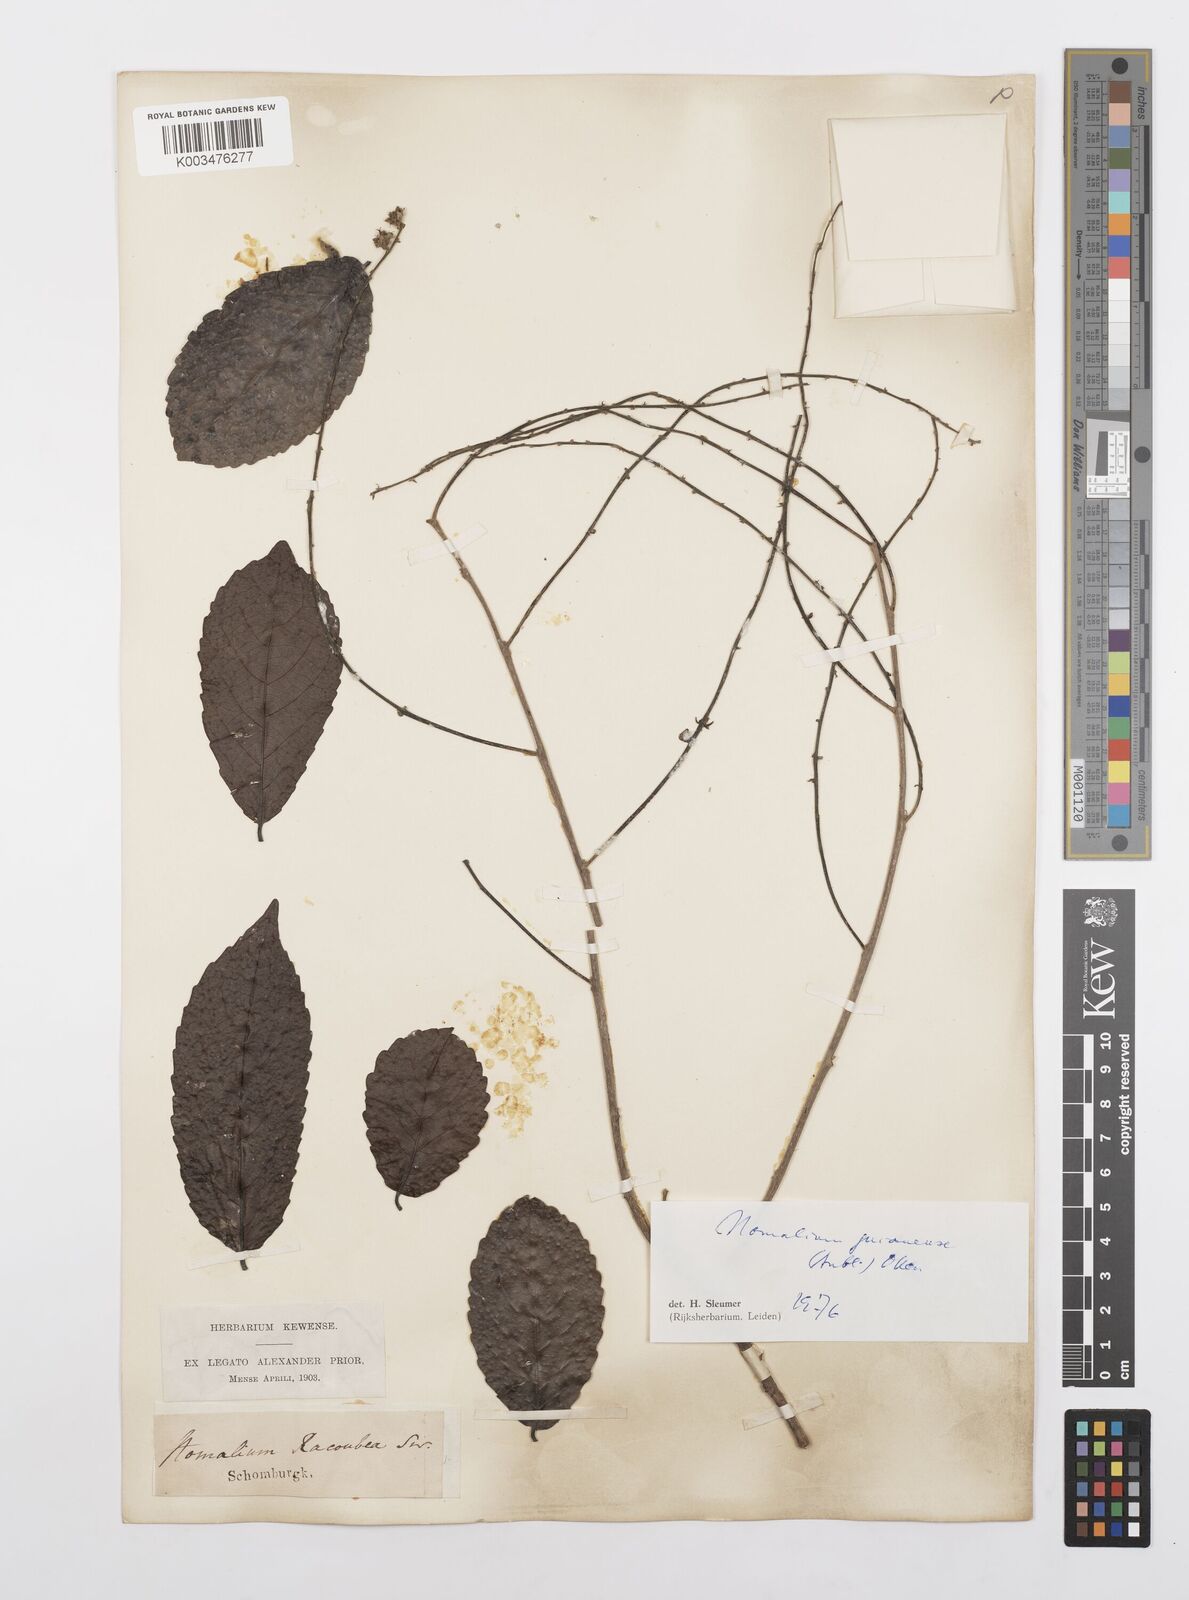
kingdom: Plantae
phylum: Tracheophyta
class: Magnoliopsida
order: Malpighiales
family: Salicaceae
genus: Homalium
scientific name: Homalium guianense
